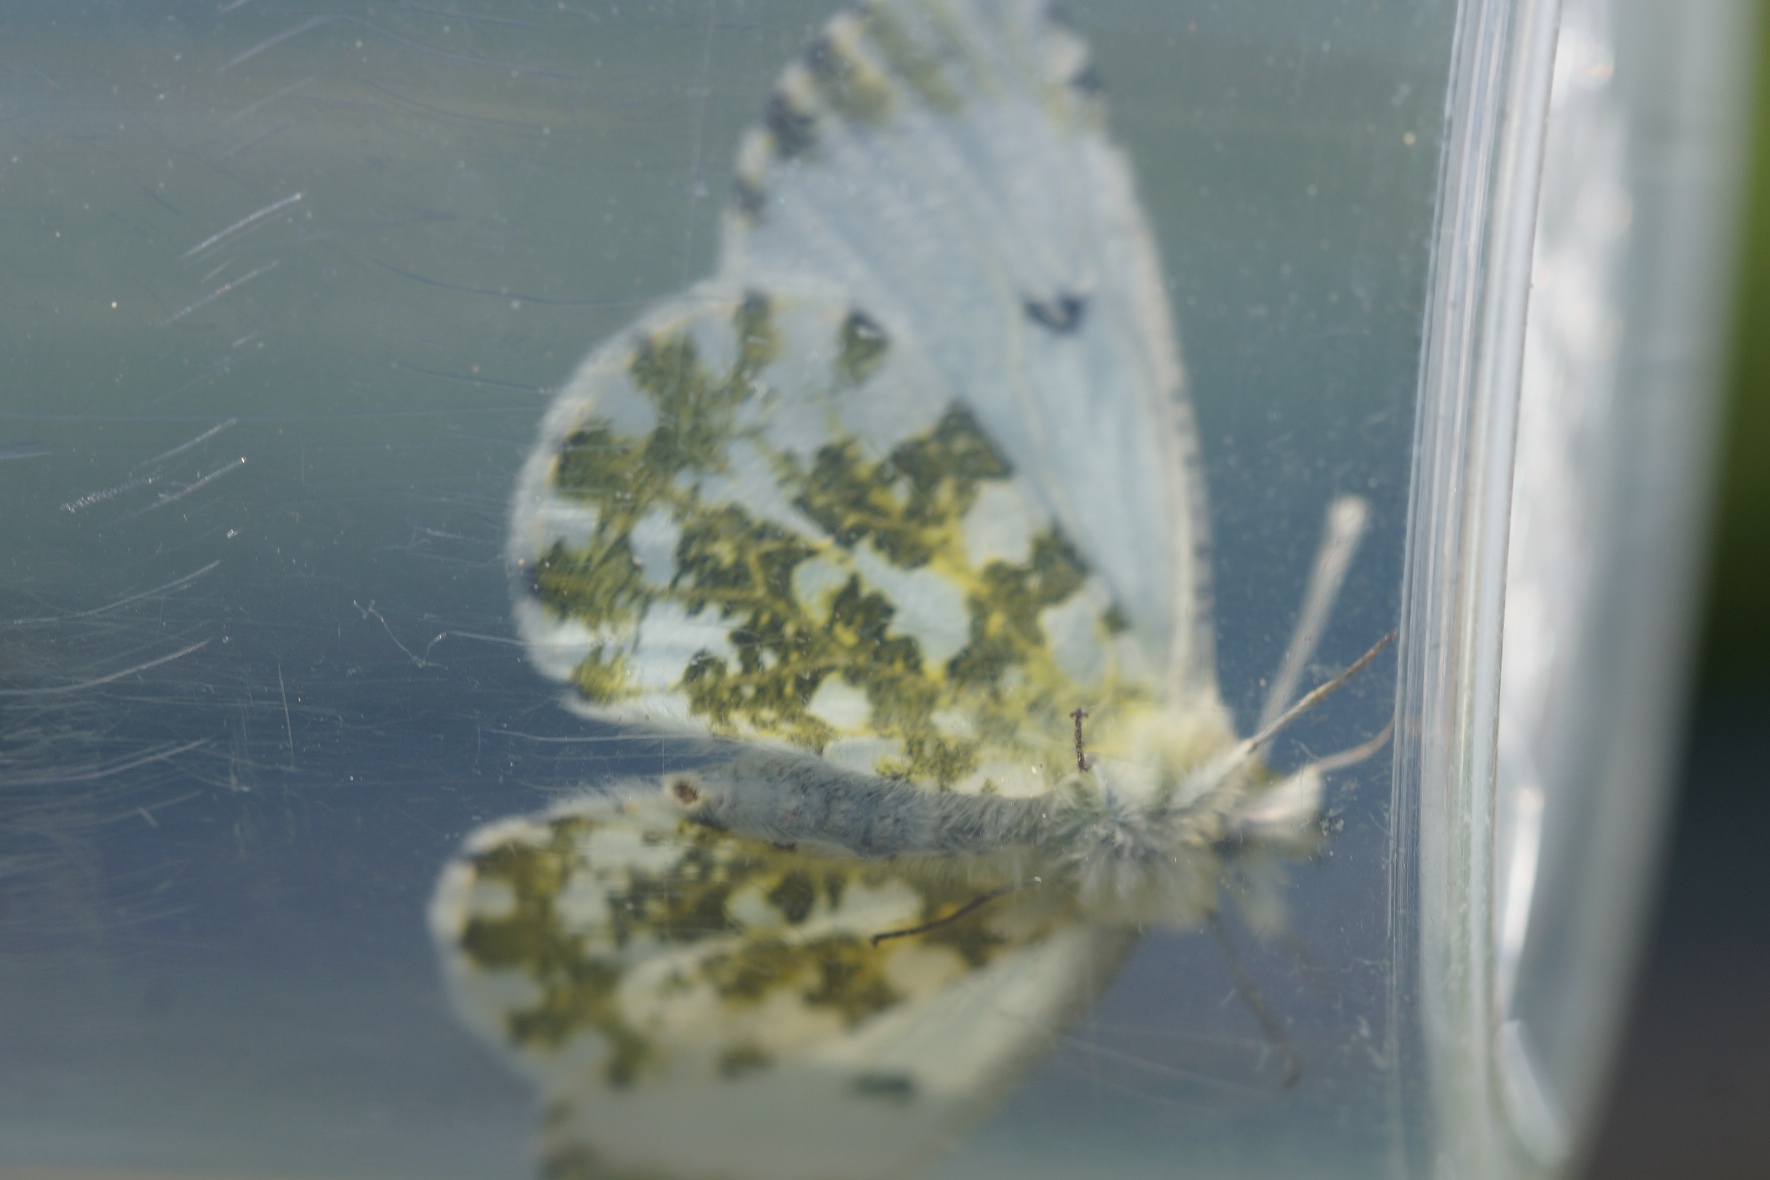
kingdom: Animalia
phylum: Arthropoda
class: Insecta
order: Lepidoptera
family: Pieridae
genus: Anthocharis
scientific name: Anthocharis cardamines
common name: Aurora
